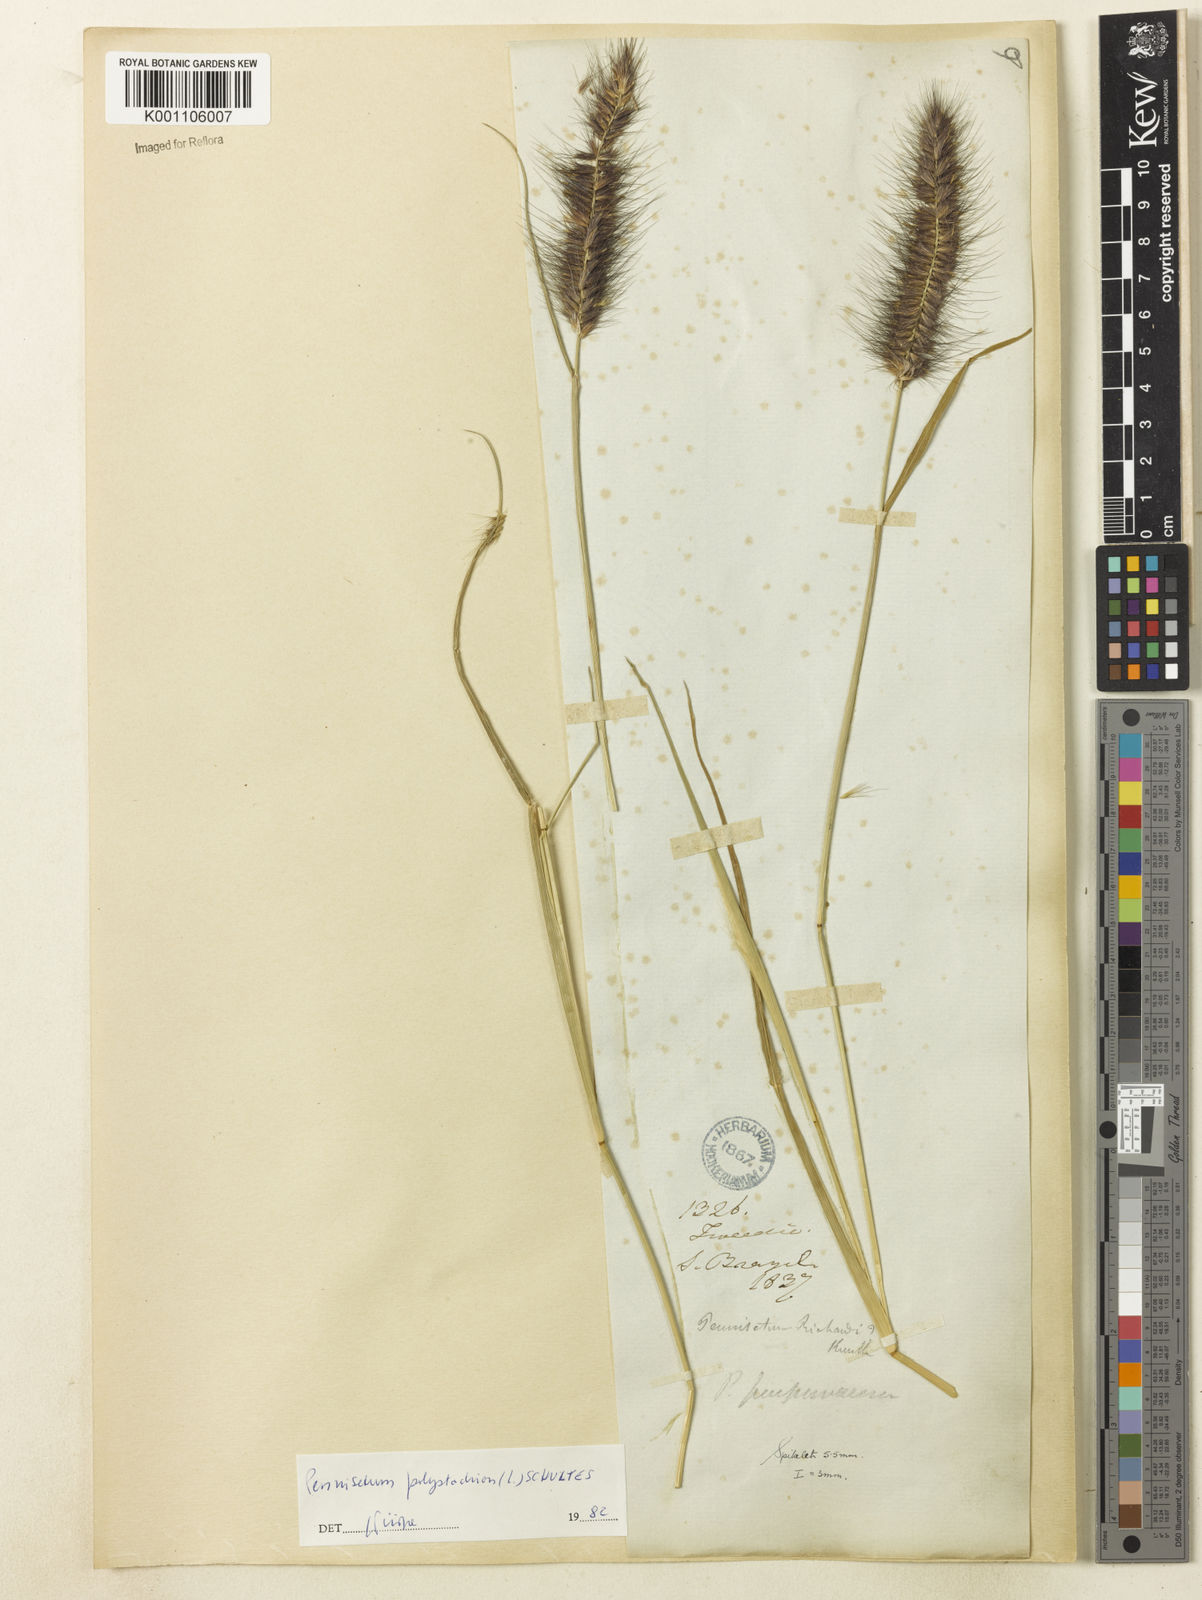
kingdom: Plantae
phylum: Tracheophyta
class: Liliopsida
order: Poales
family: Poaceae
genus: Setaria
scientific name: Setaria parviflora
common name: Knotroot bristle-grass
